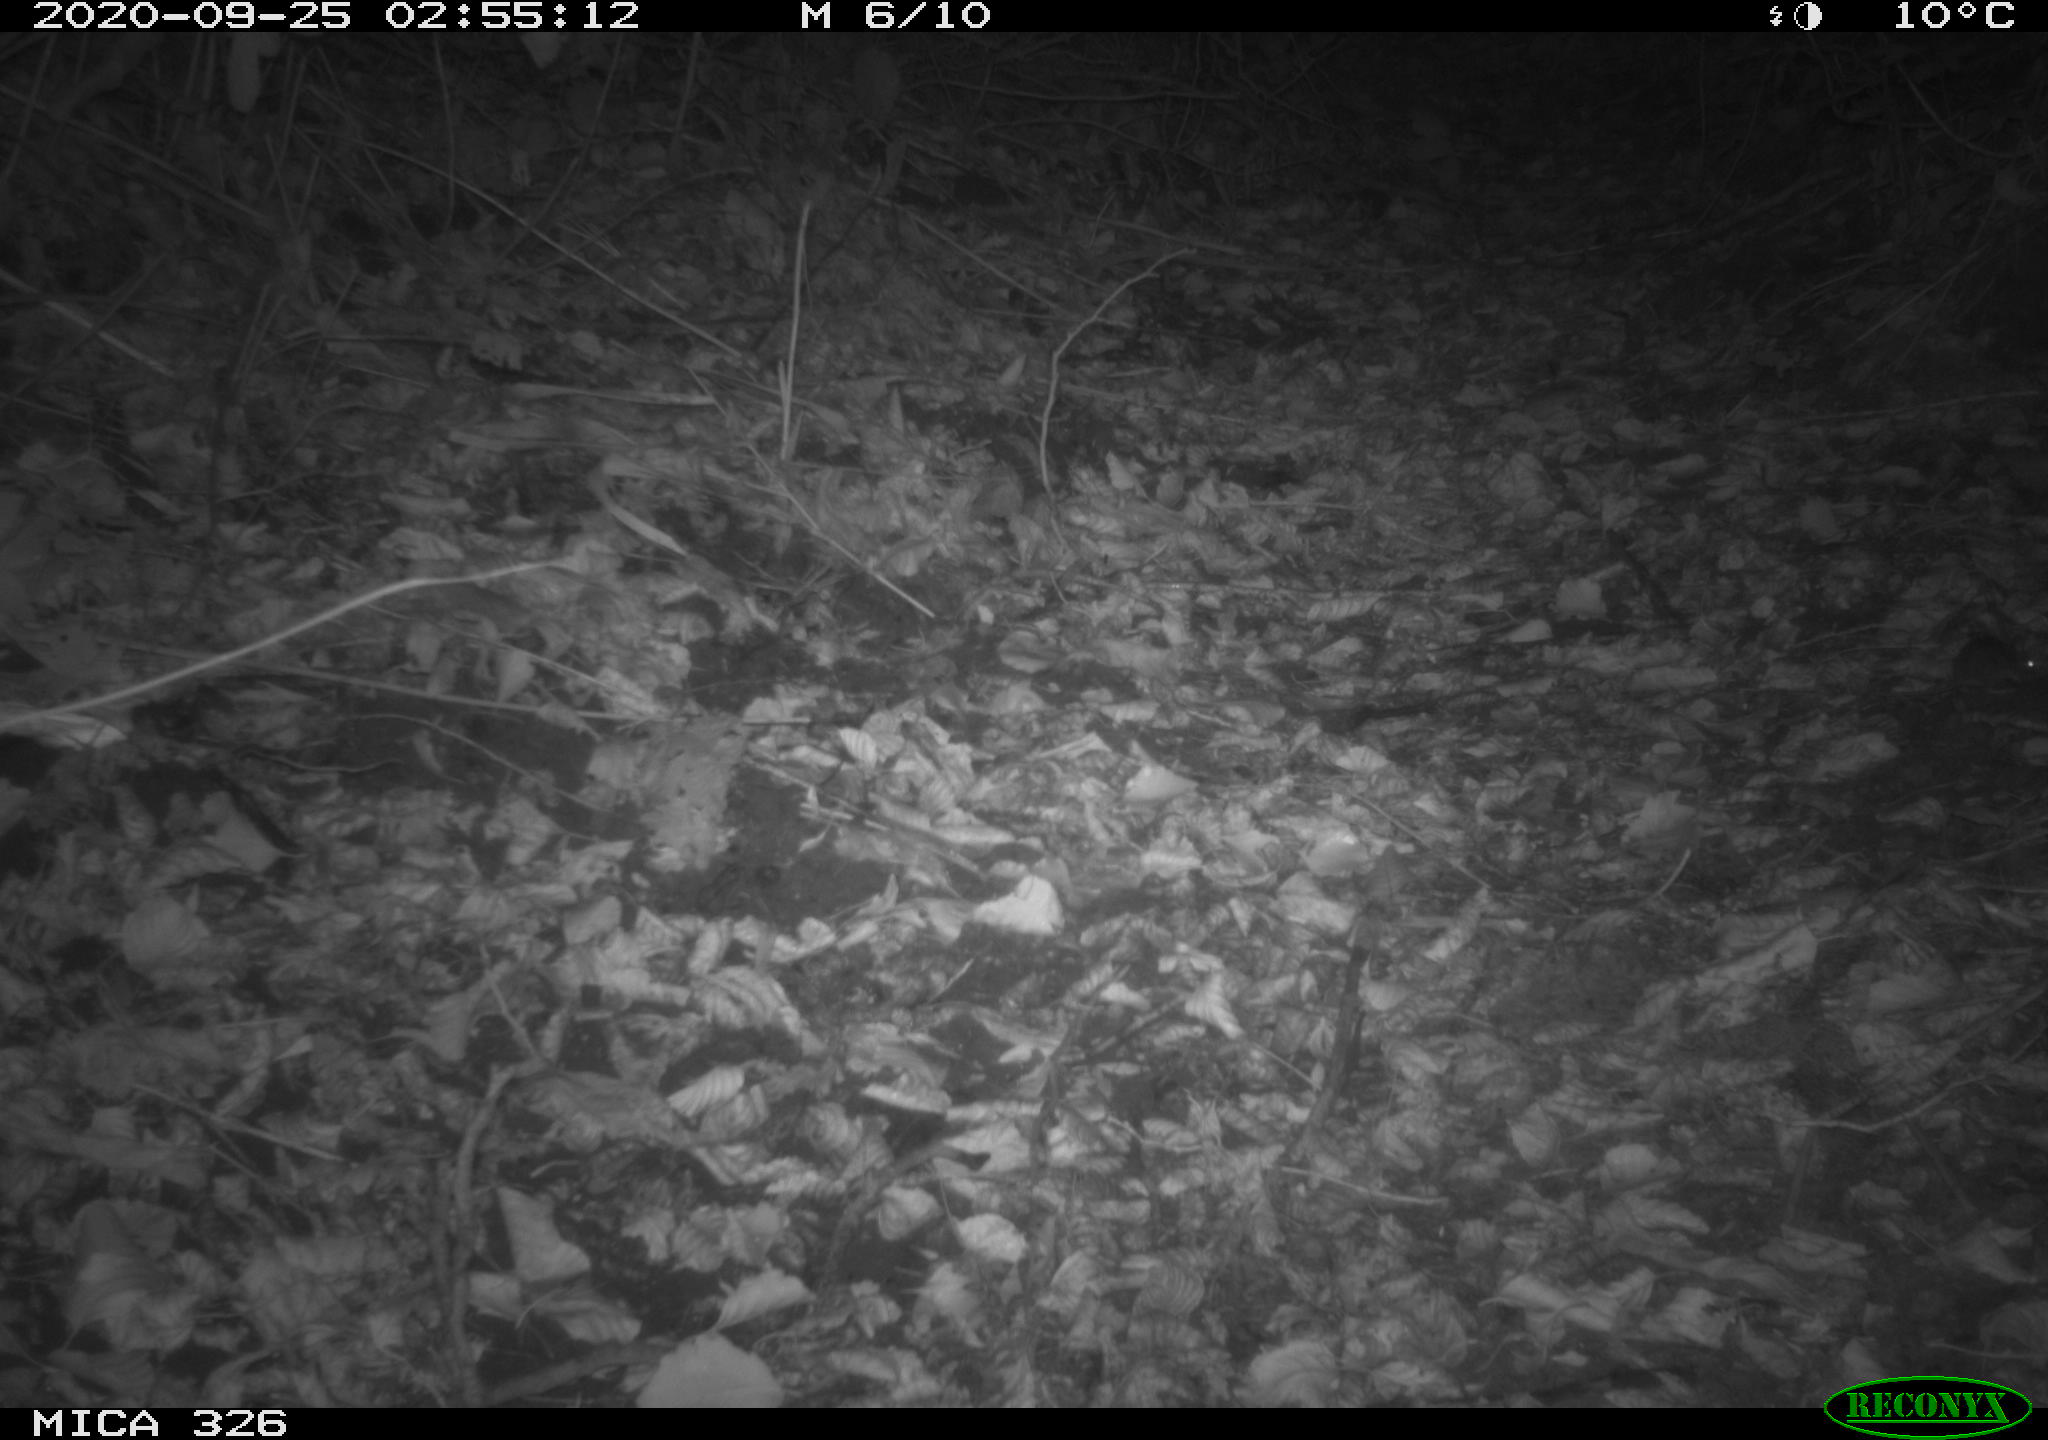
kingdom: Animalia
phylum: Chordata
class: Mammalia
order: Rodentia
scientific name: Rodentia
